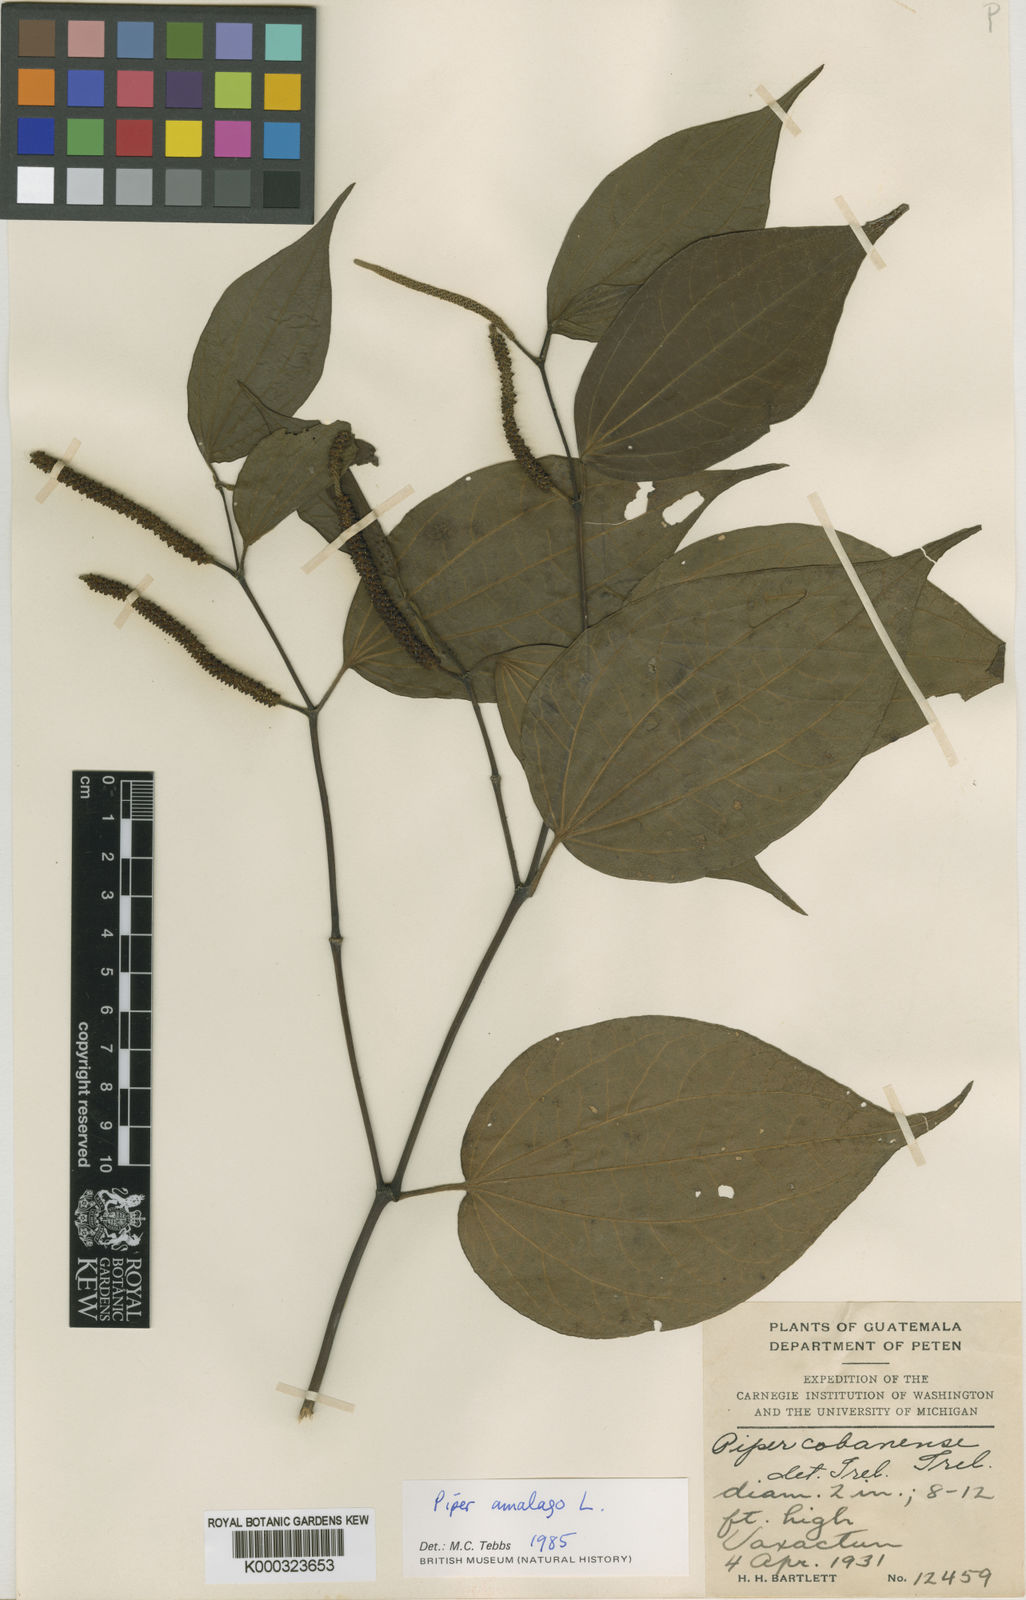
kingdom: Plantae
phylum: Tracheophyta
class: Magnoliopsida
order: Piperales
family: Piperaceae
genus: Piper
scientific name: Piper amalago
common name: Pepper-elder
